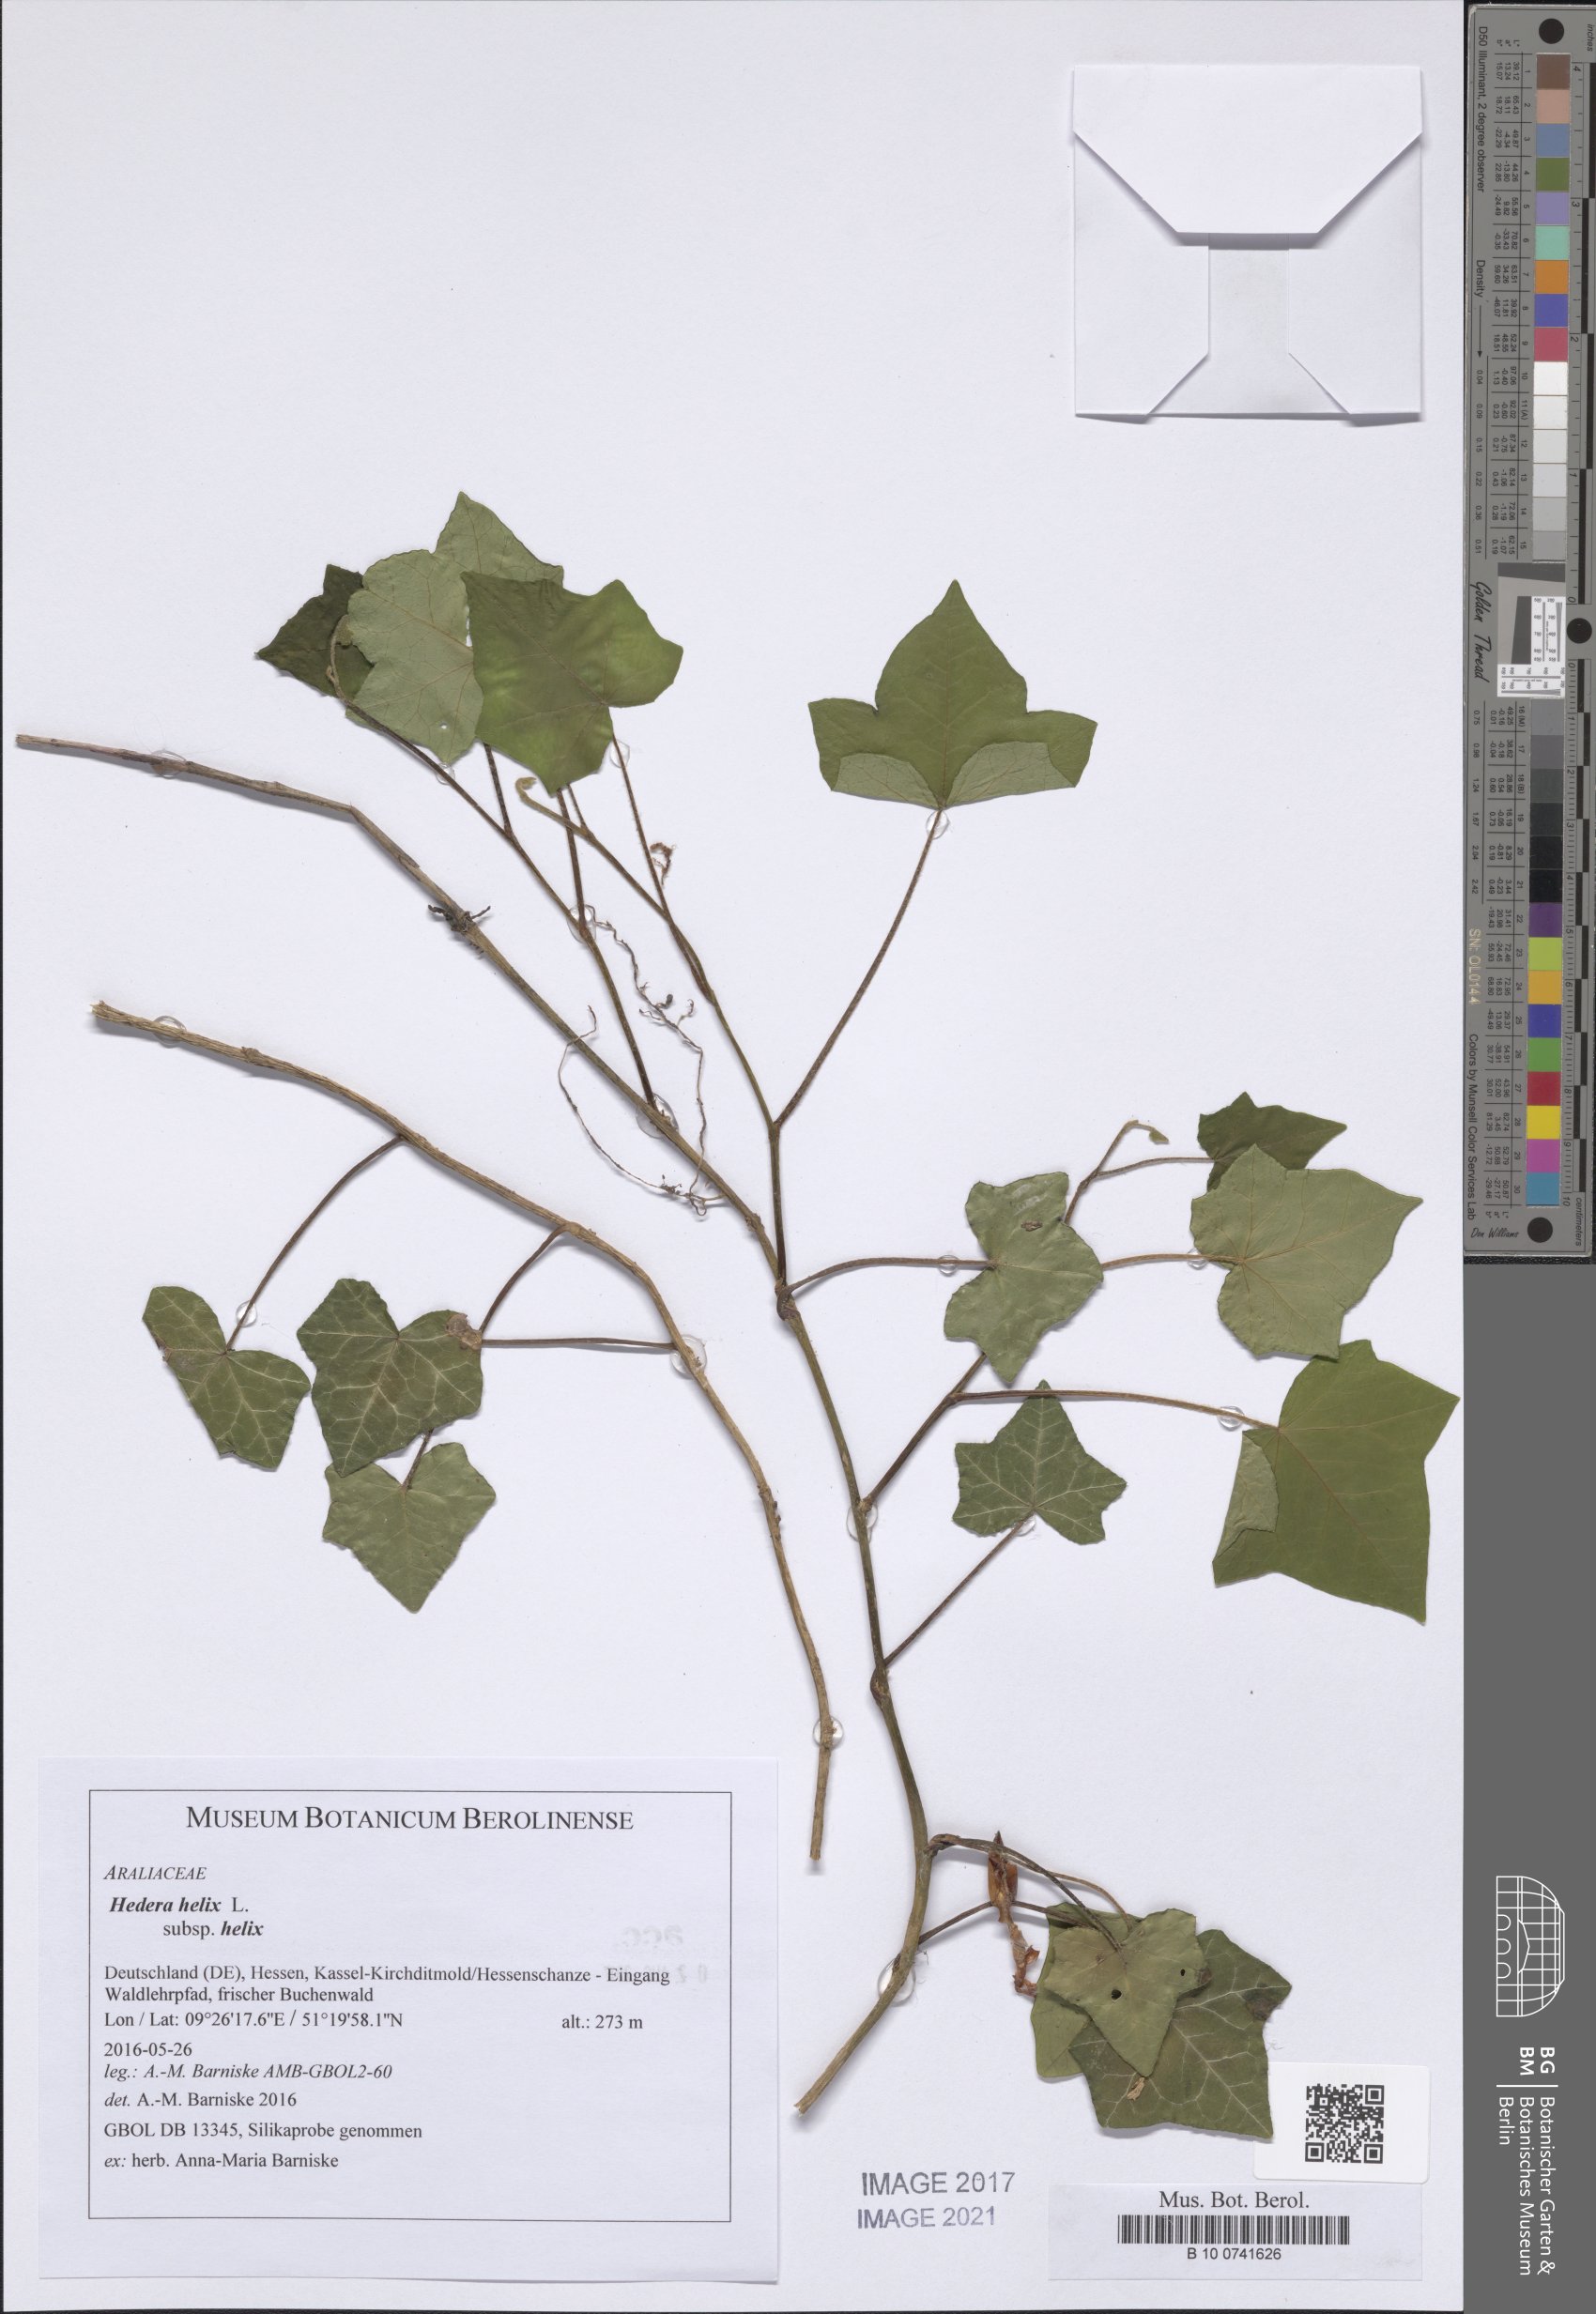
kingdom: Plantae
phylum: Tracheophyta
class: Magnoliopsida
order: Apiales
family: Araliaceae
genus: Hedera
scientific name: Hedera helix
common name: Ivy
